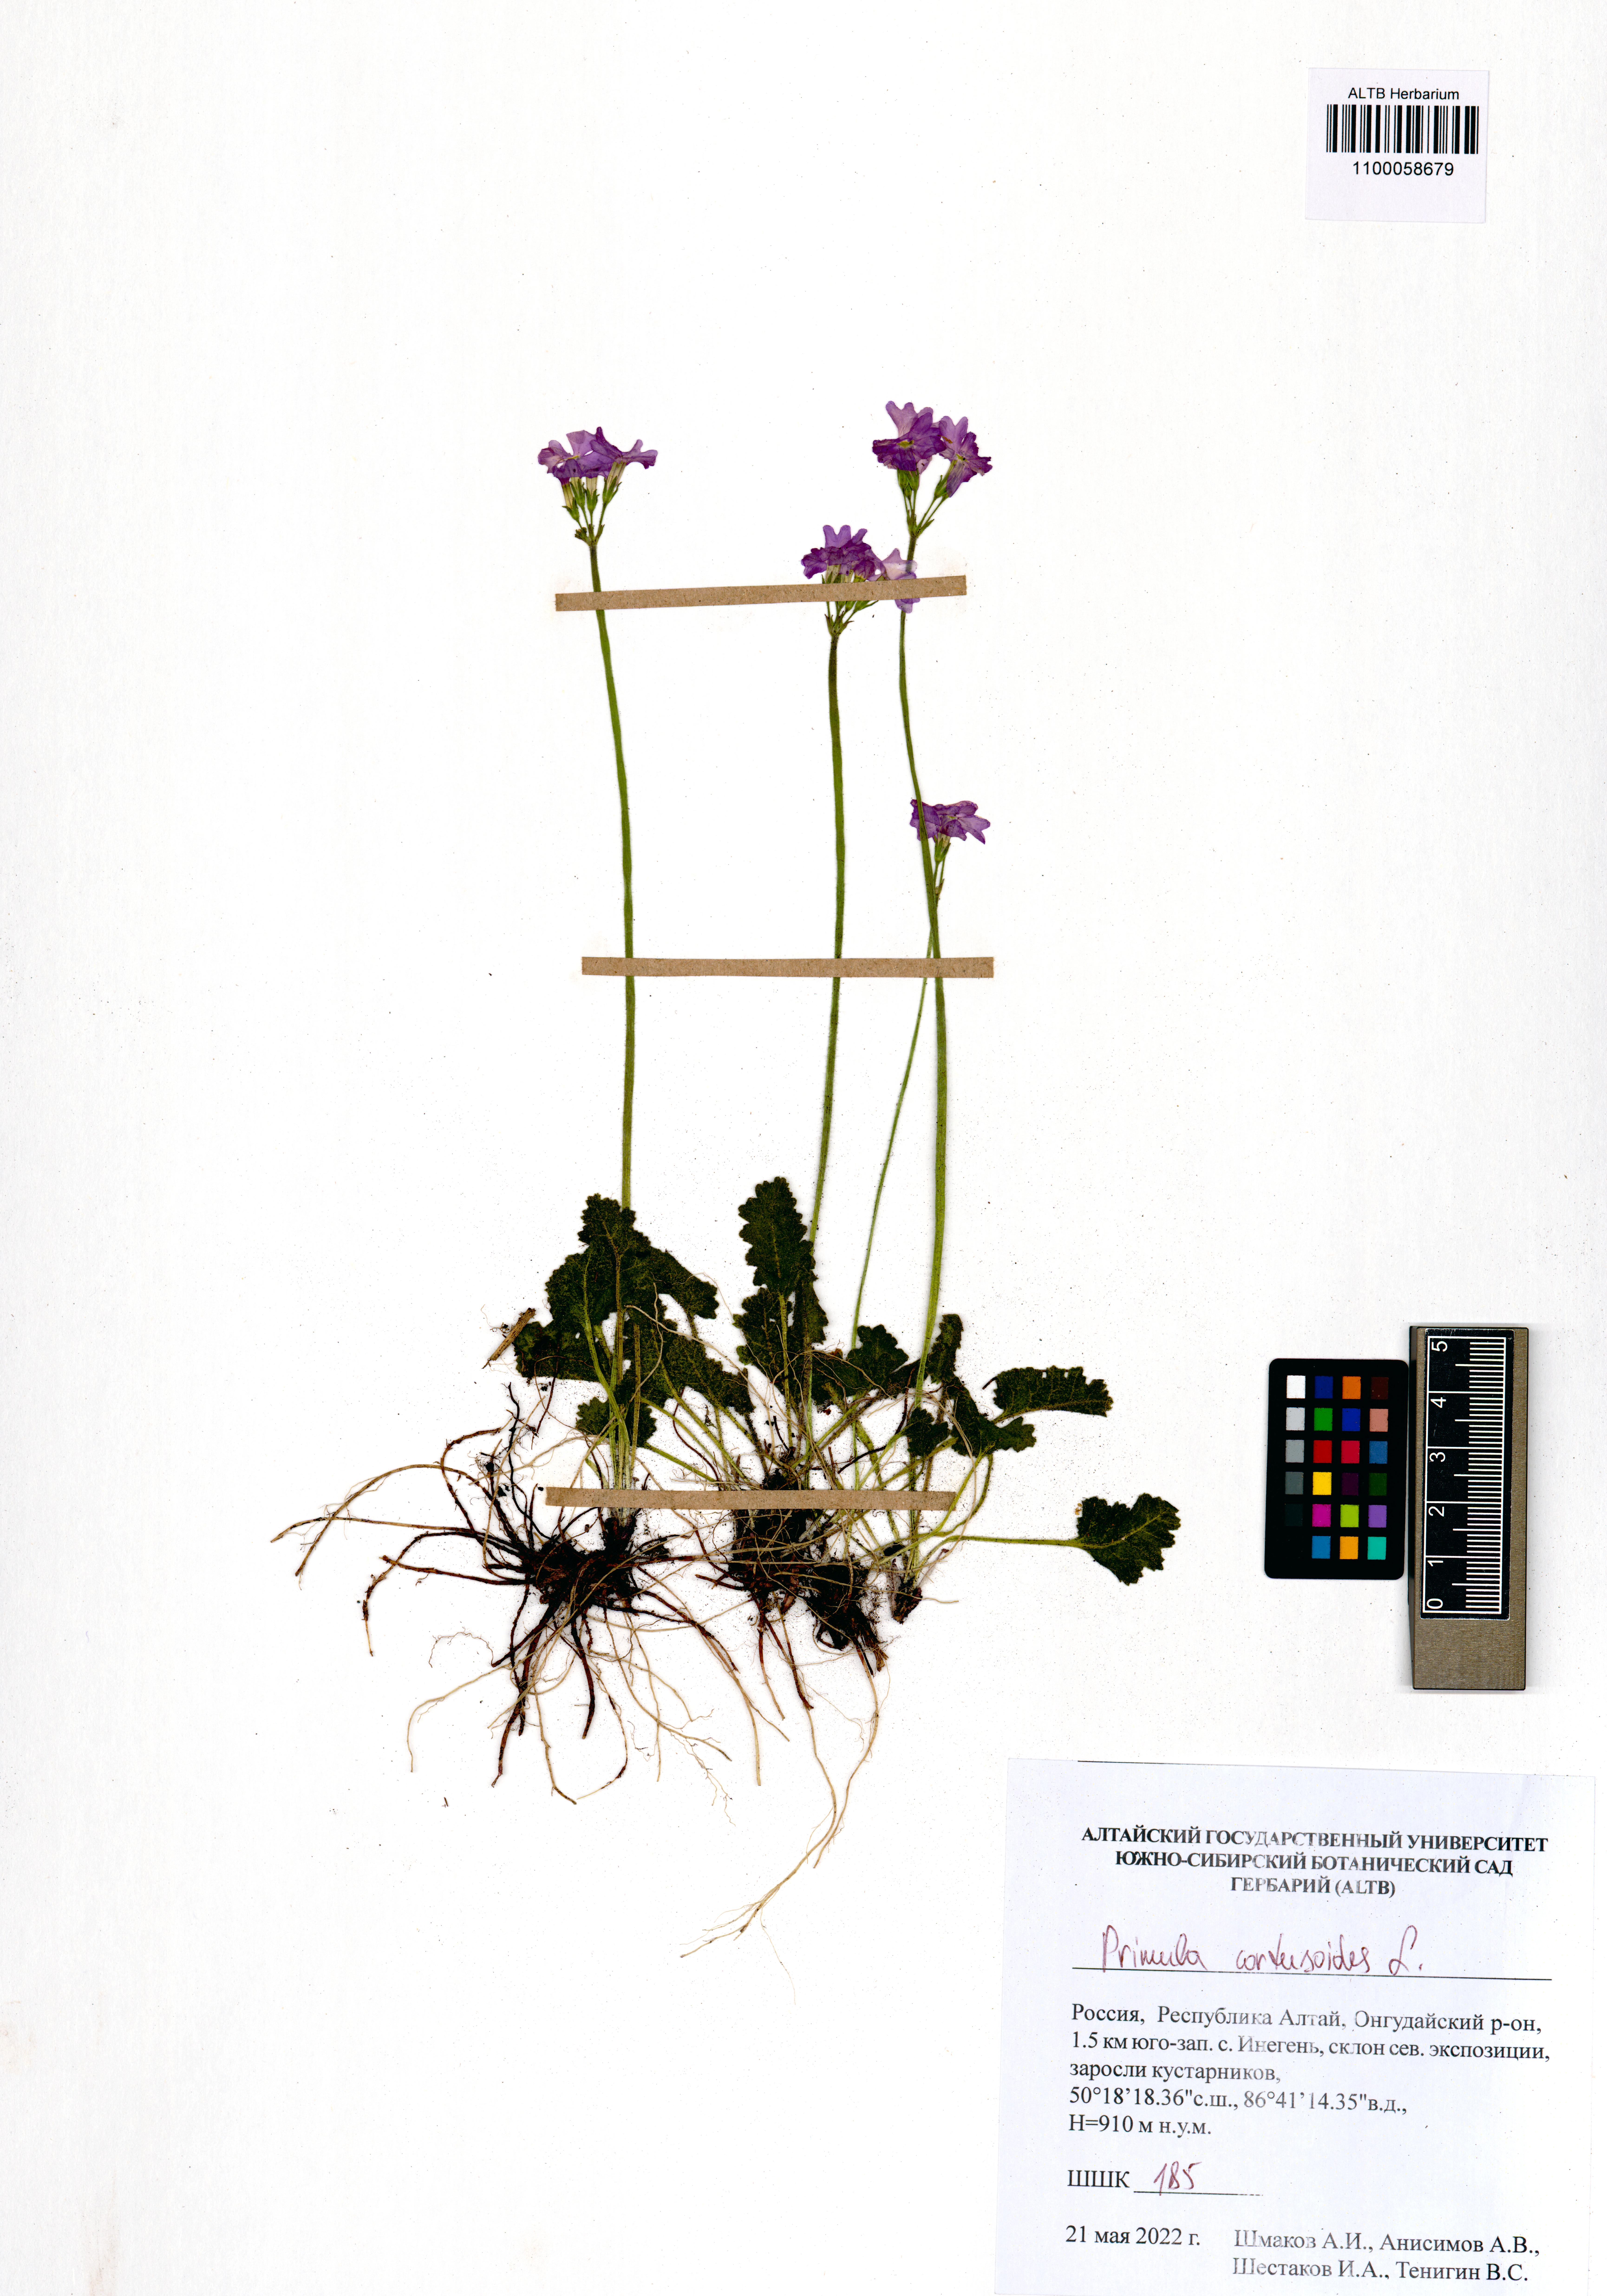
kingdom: Plantae
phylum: Tracheophyta
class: Magnoliopsida
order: Ericales
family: Primulaceae
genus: Primula
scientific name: Primula cortusoides
